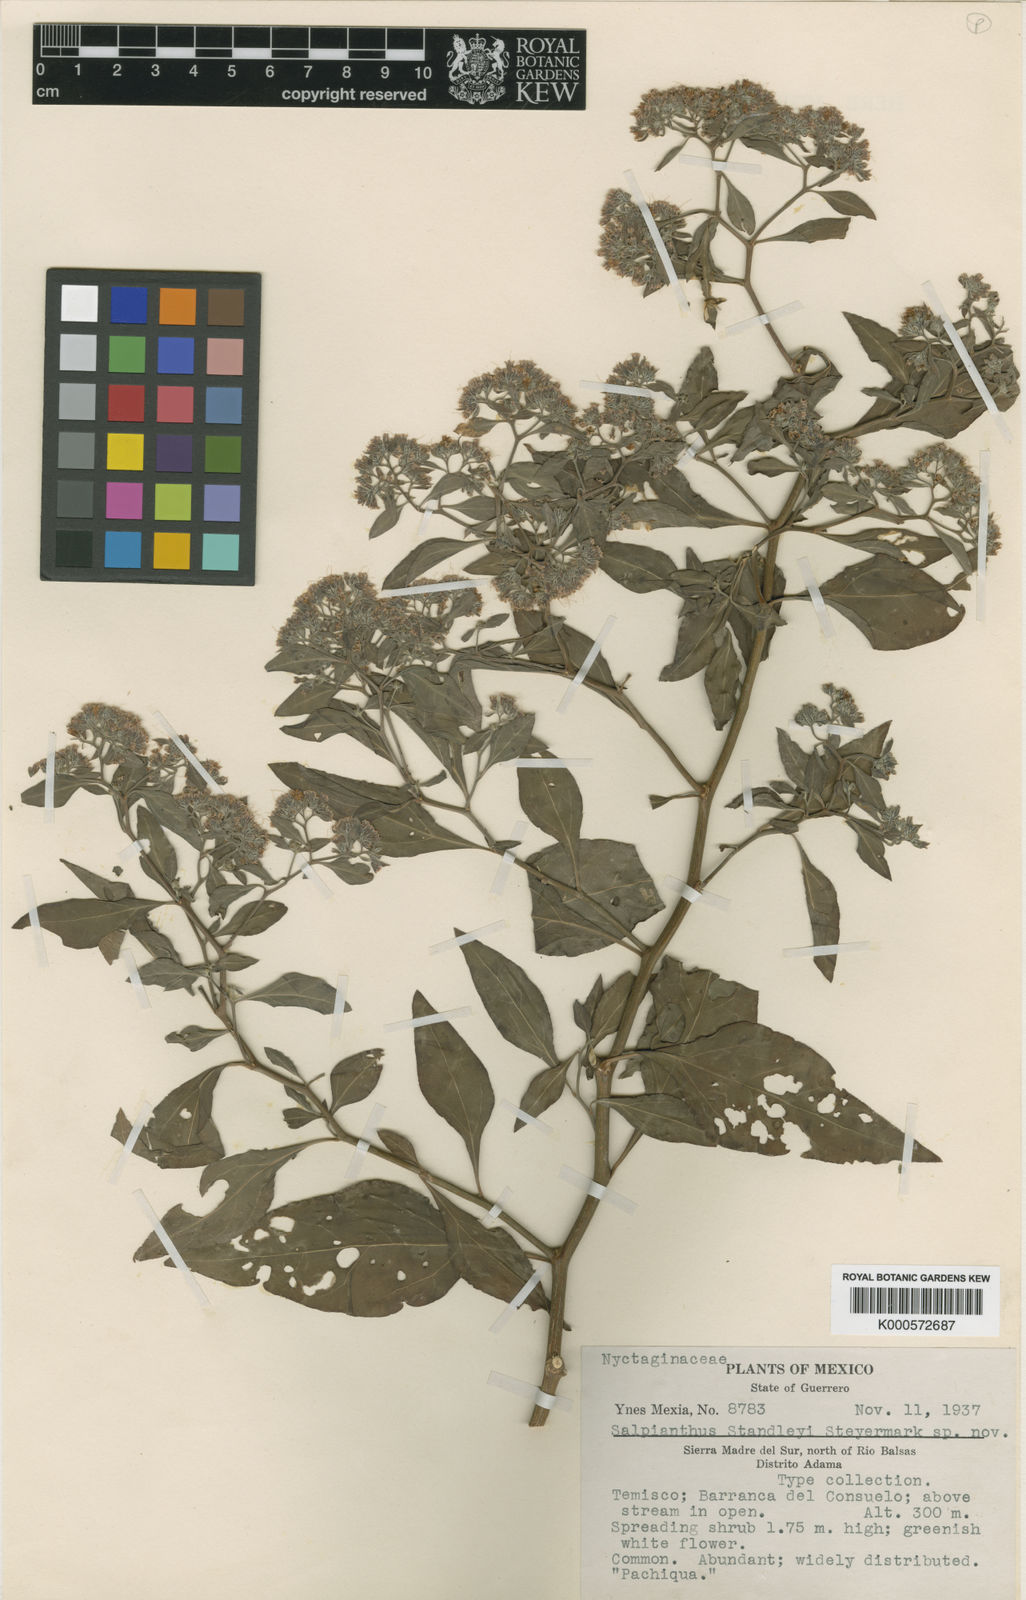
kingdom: Plantae
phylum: Tracheophyta
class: Magnoliopsida
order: Caryophyllales
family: Nyctaginaceae
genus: Salpianthus
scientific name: Salpianthus standleyi
